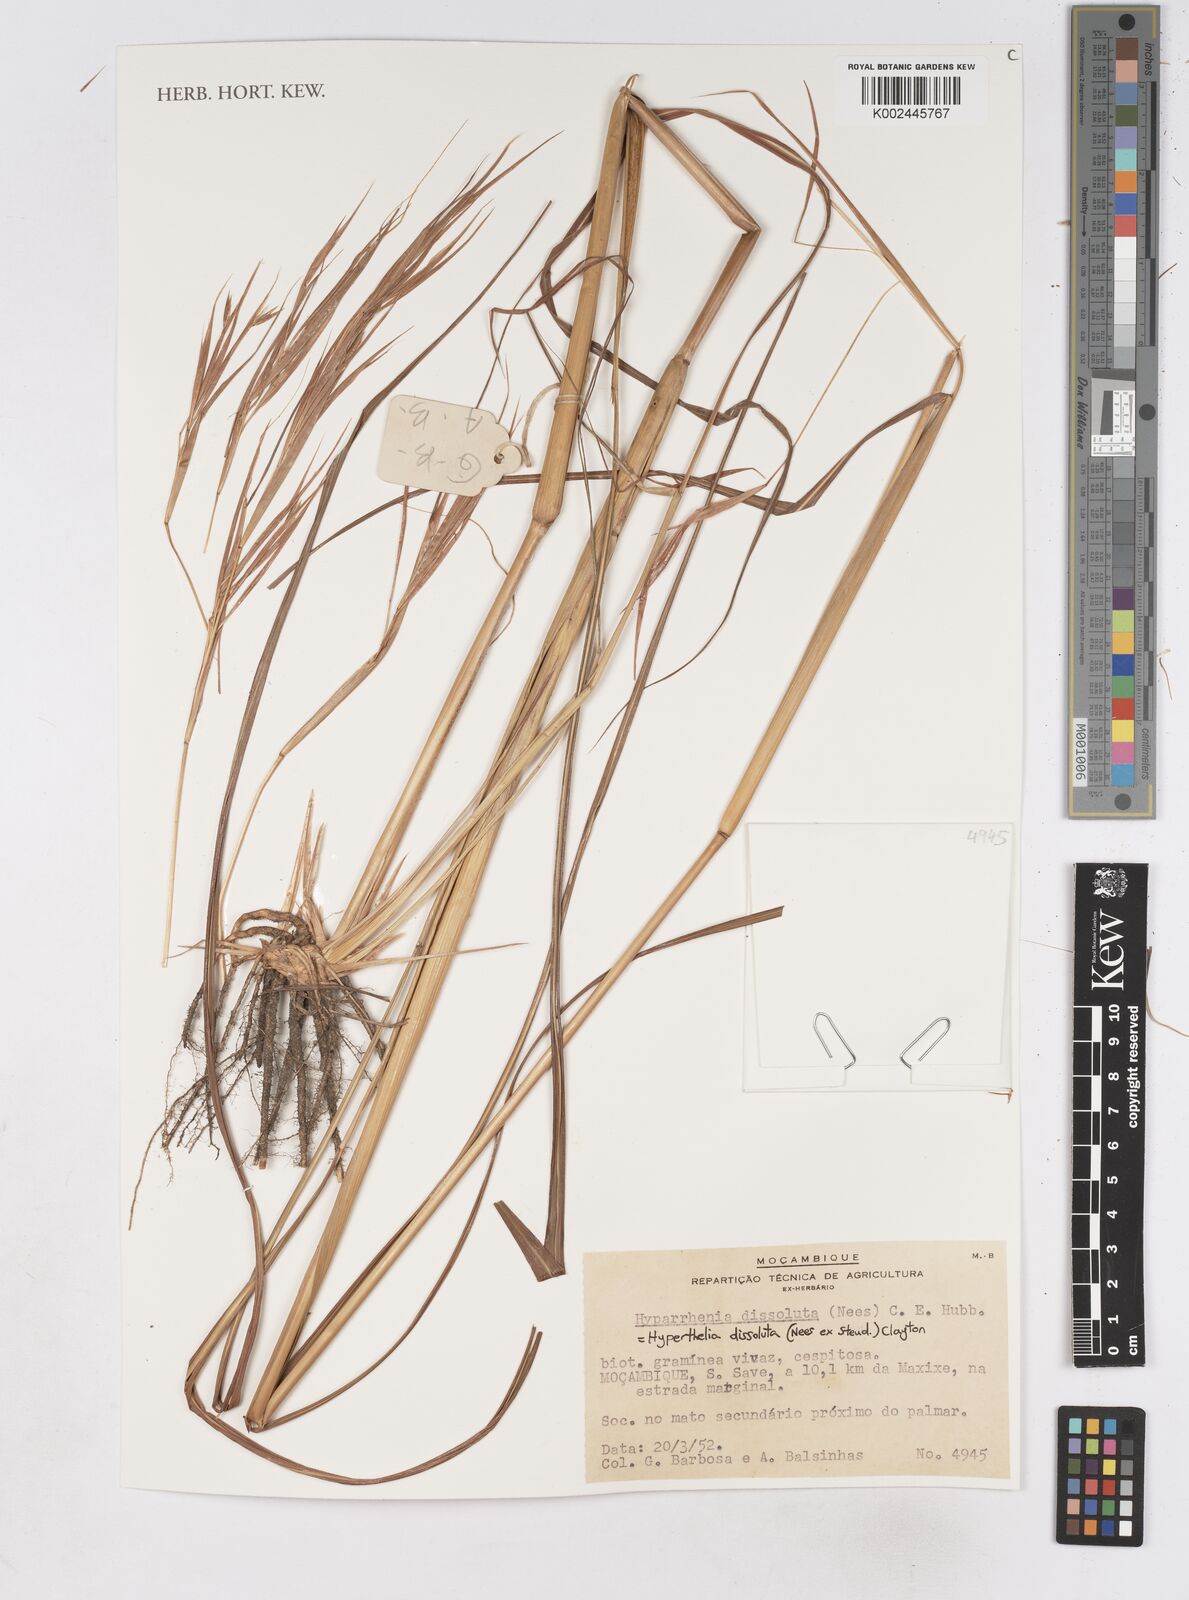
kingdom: Plantae
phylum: Tracheophyta
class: Liliopsida
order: Poales
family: Poaceae
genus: Hyperthelia
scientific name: Hyperthelia dissoluta
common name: Yellow thatching grass
